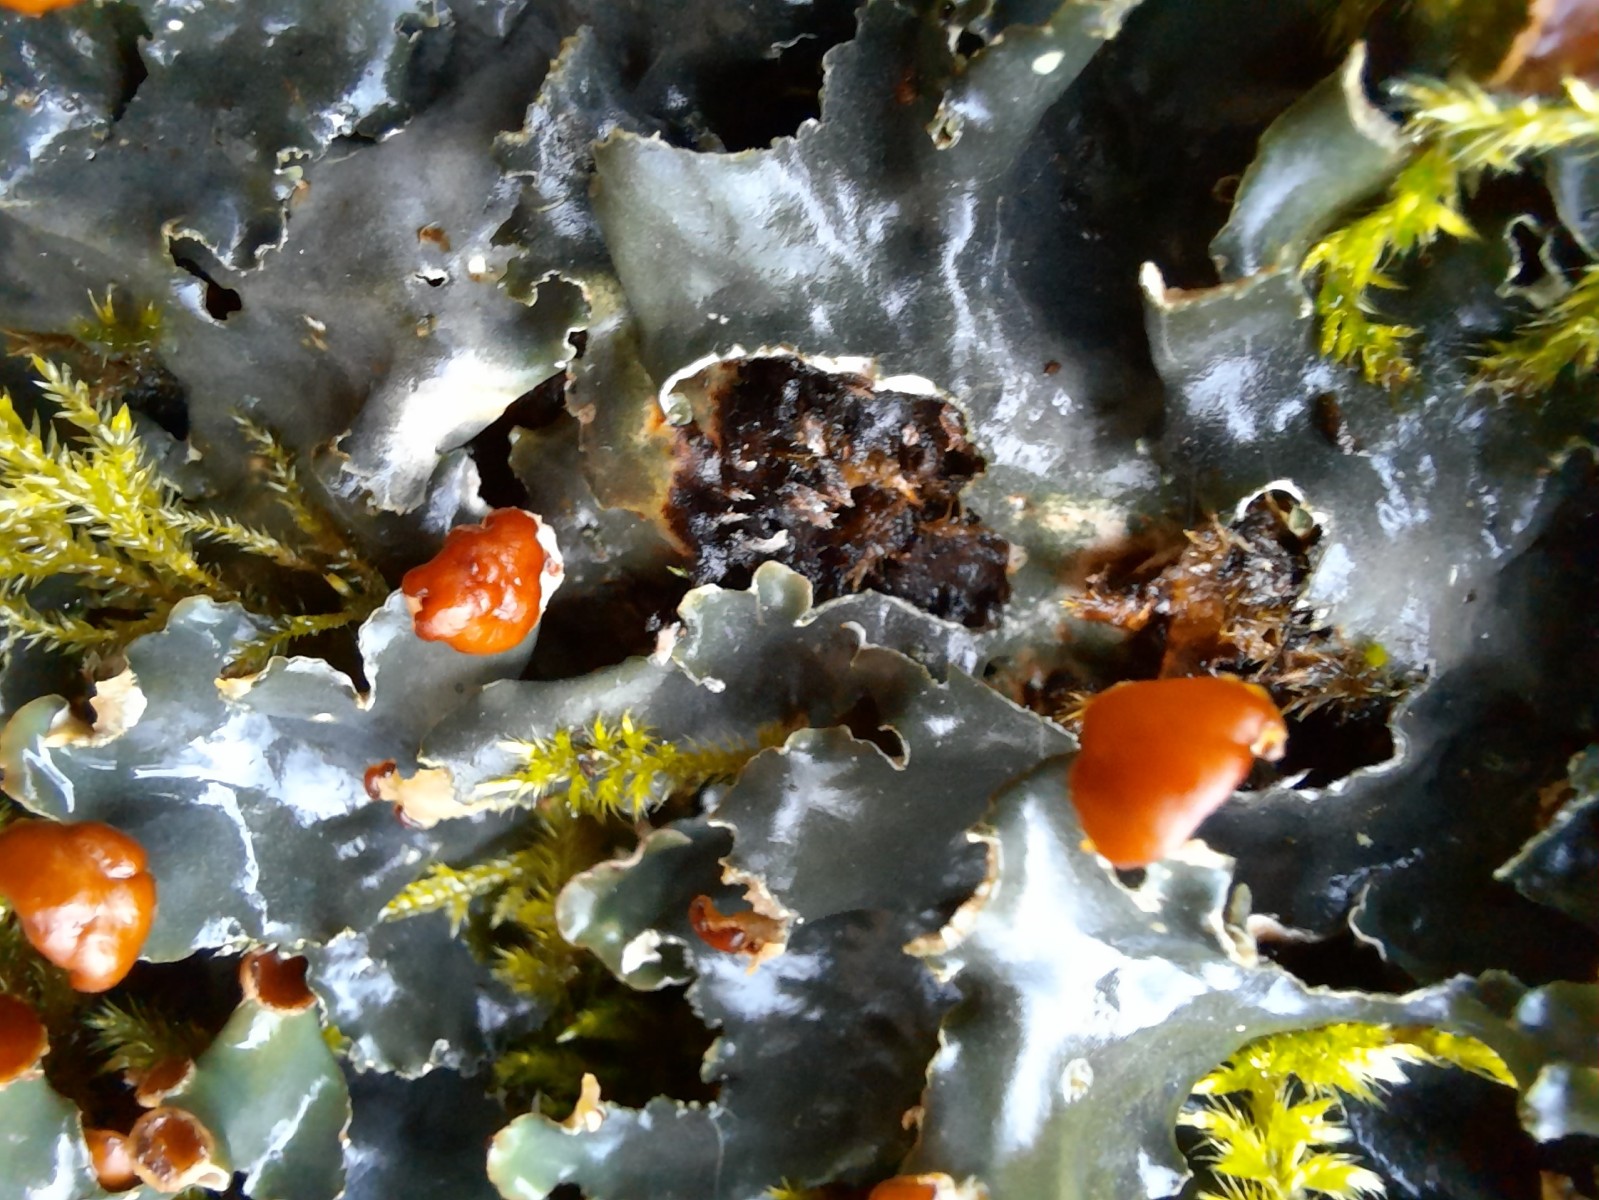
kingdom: Fungi
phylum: Ascomycota
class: Lecanoromycetes
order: Peltigerales
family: Peltigeraceae
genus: Peltigera
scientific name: Peltigera horizontalis
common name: blank skjoldlav
